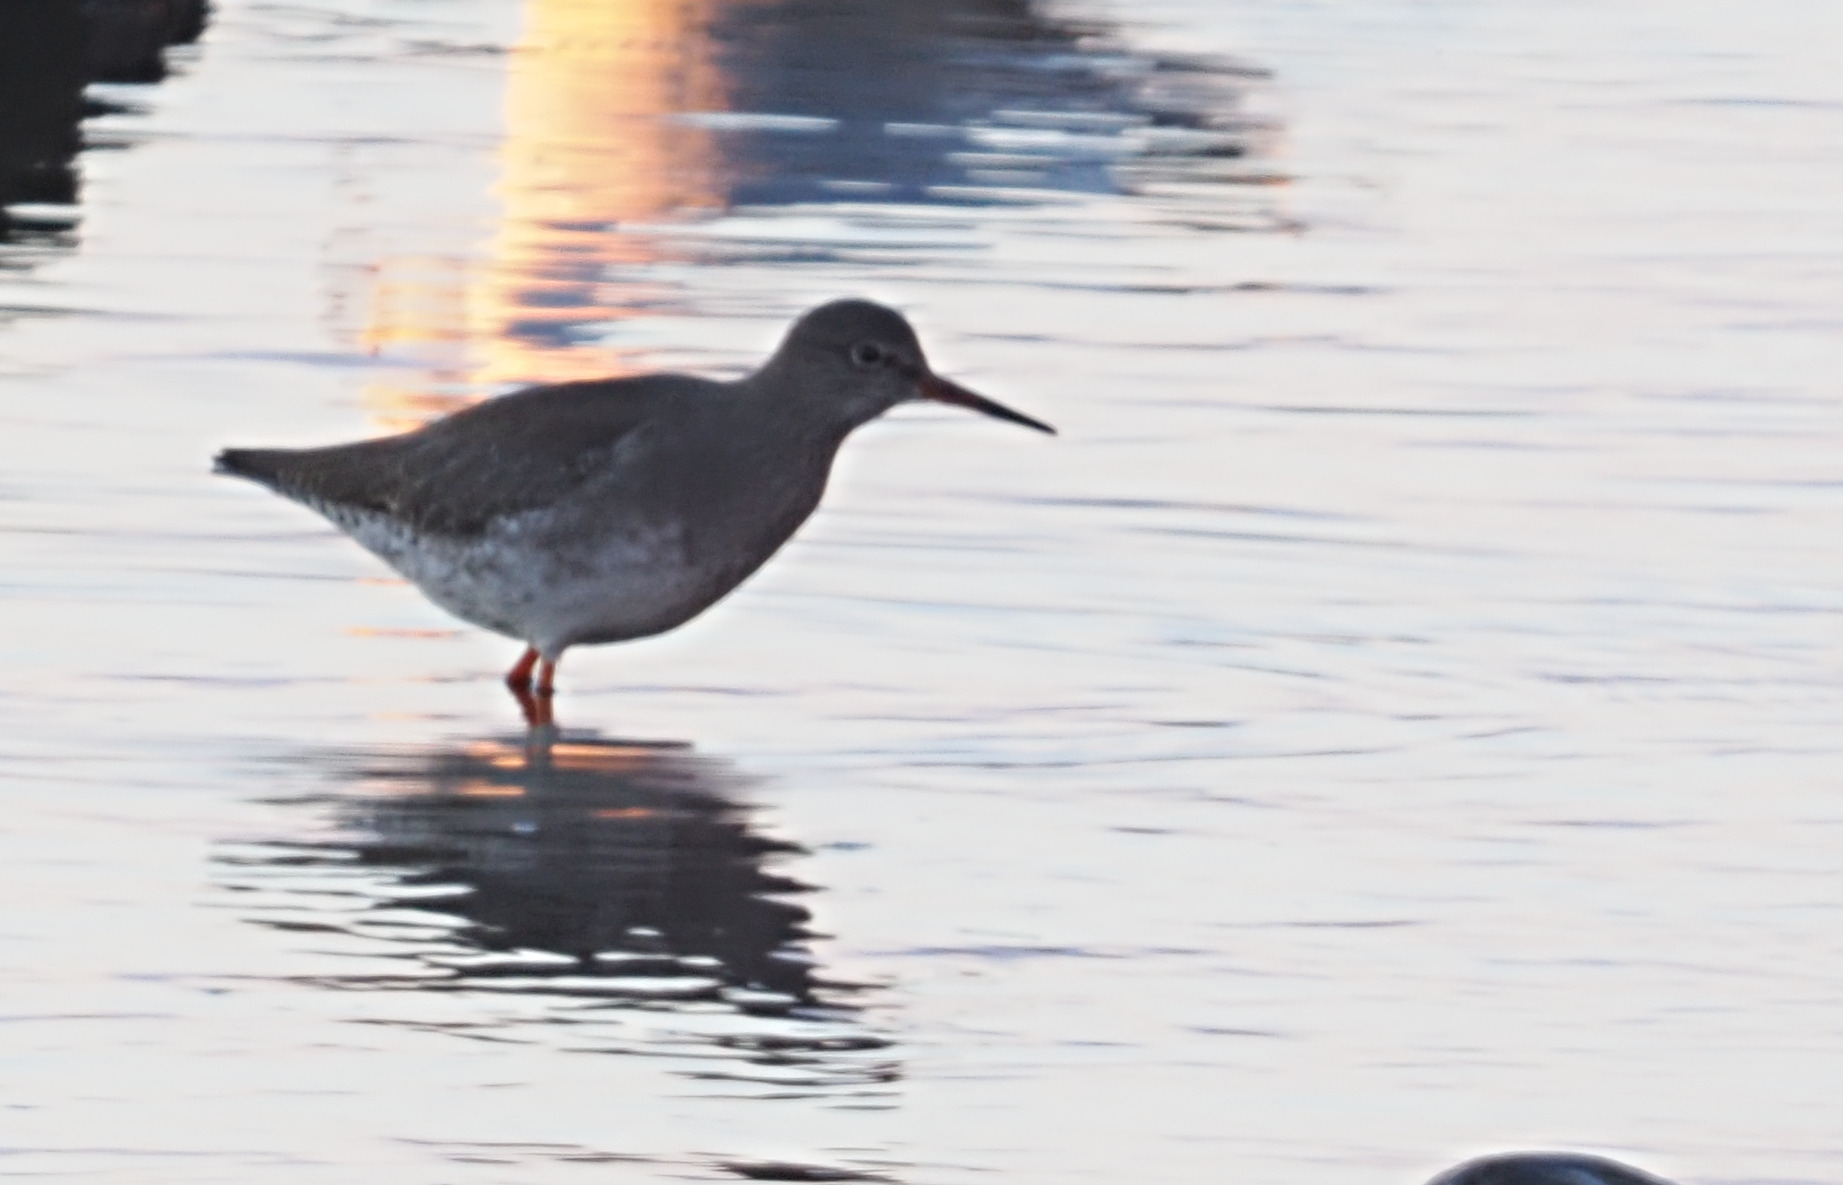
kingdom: Animalia
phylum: Chordata
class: Aves
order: Charadriiformes
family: Scolopacidae
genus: Tringa
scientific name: Tringa totanus
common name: Rødben
